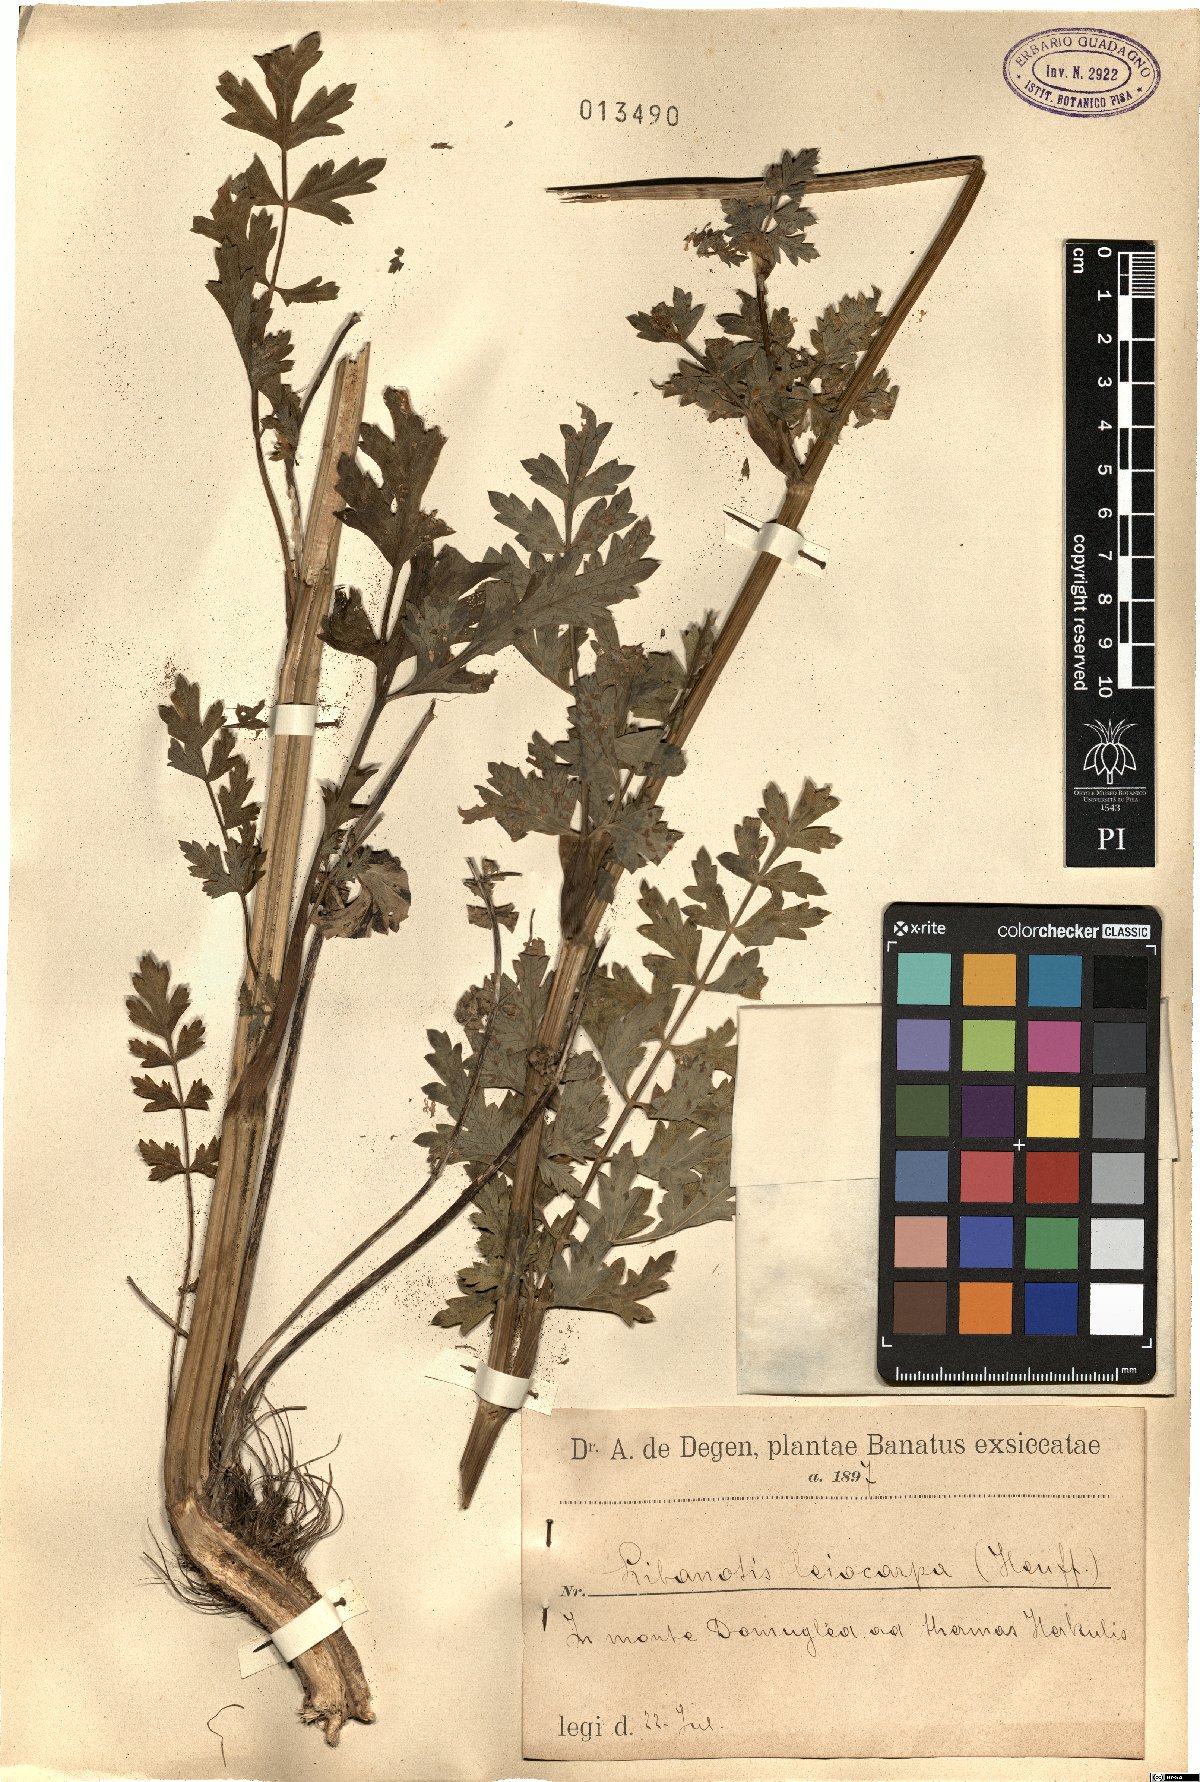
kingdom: Plantae
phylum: Tracheophyta
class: Magnoliopsida
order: Apiales
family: Apiaceae
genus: Seseli
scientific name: Seseli libanotis
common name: Mooncarrot
